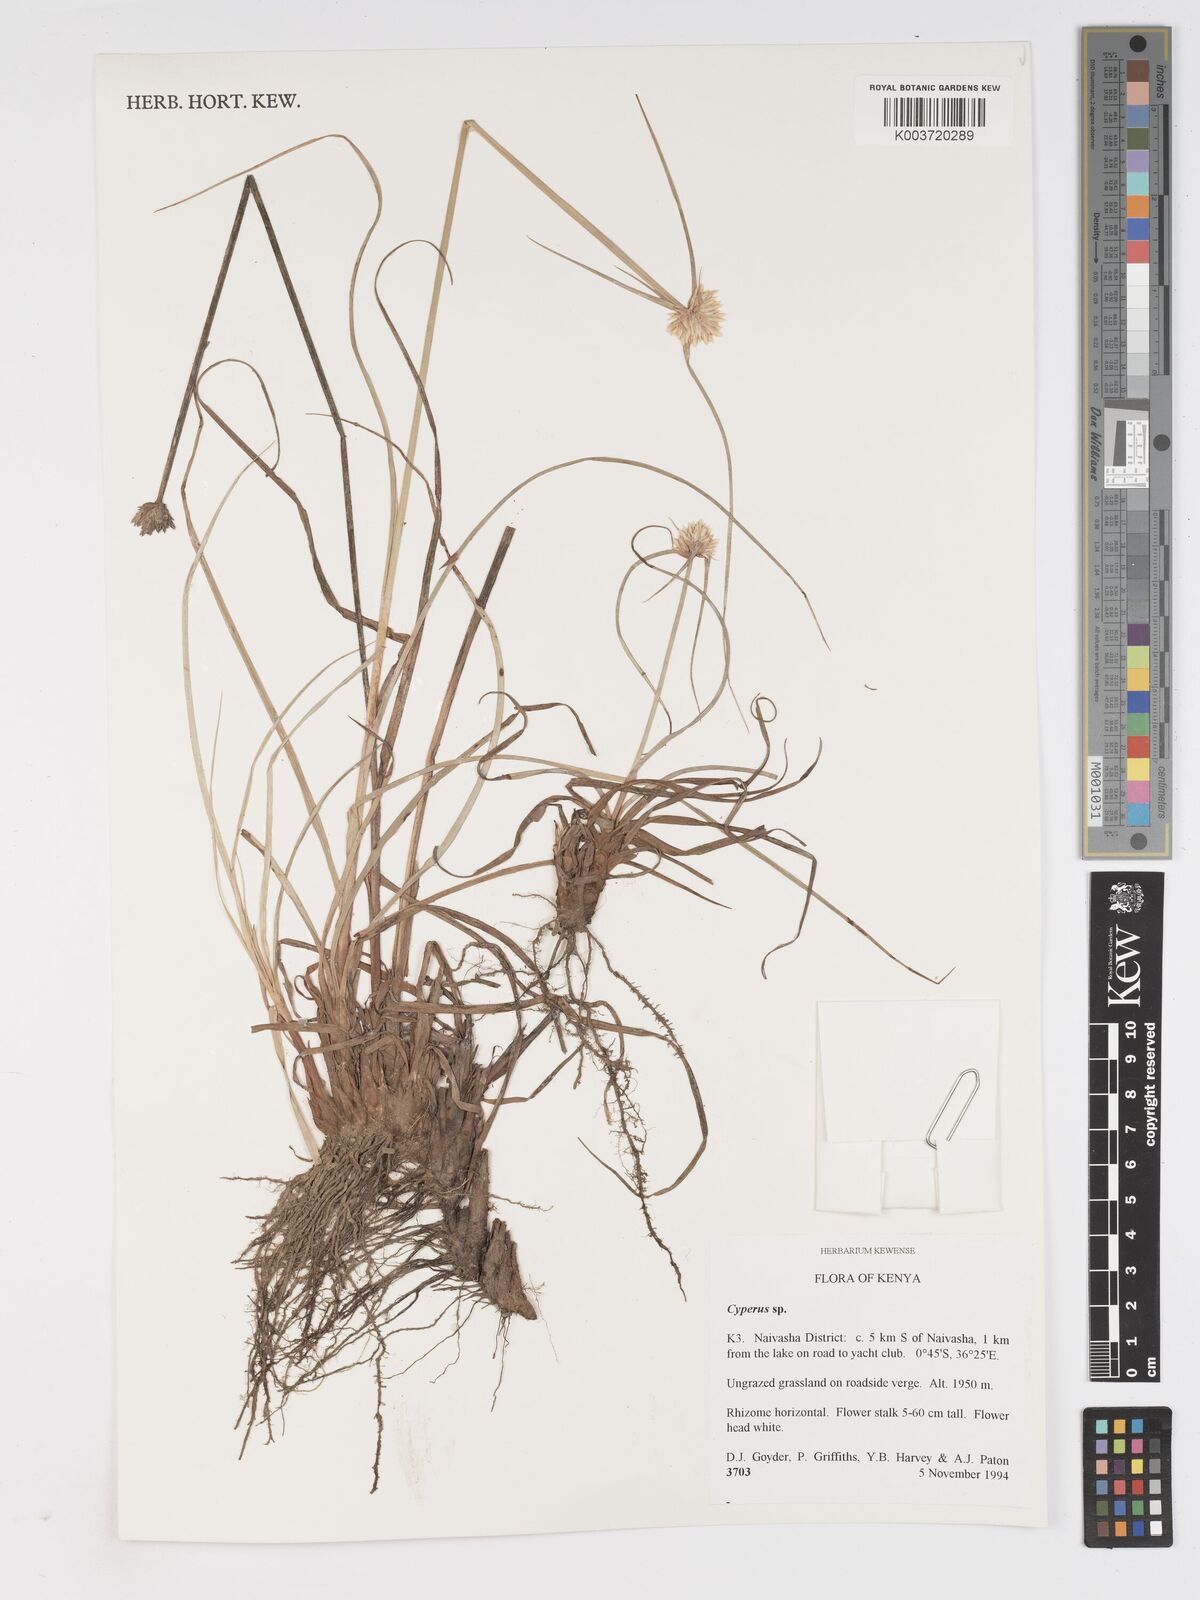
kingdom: Plantae
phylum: Tracheophyta
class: Liliopsida
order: Poales
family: Cyperaceae
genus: Cyperus
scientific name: Cyperus
